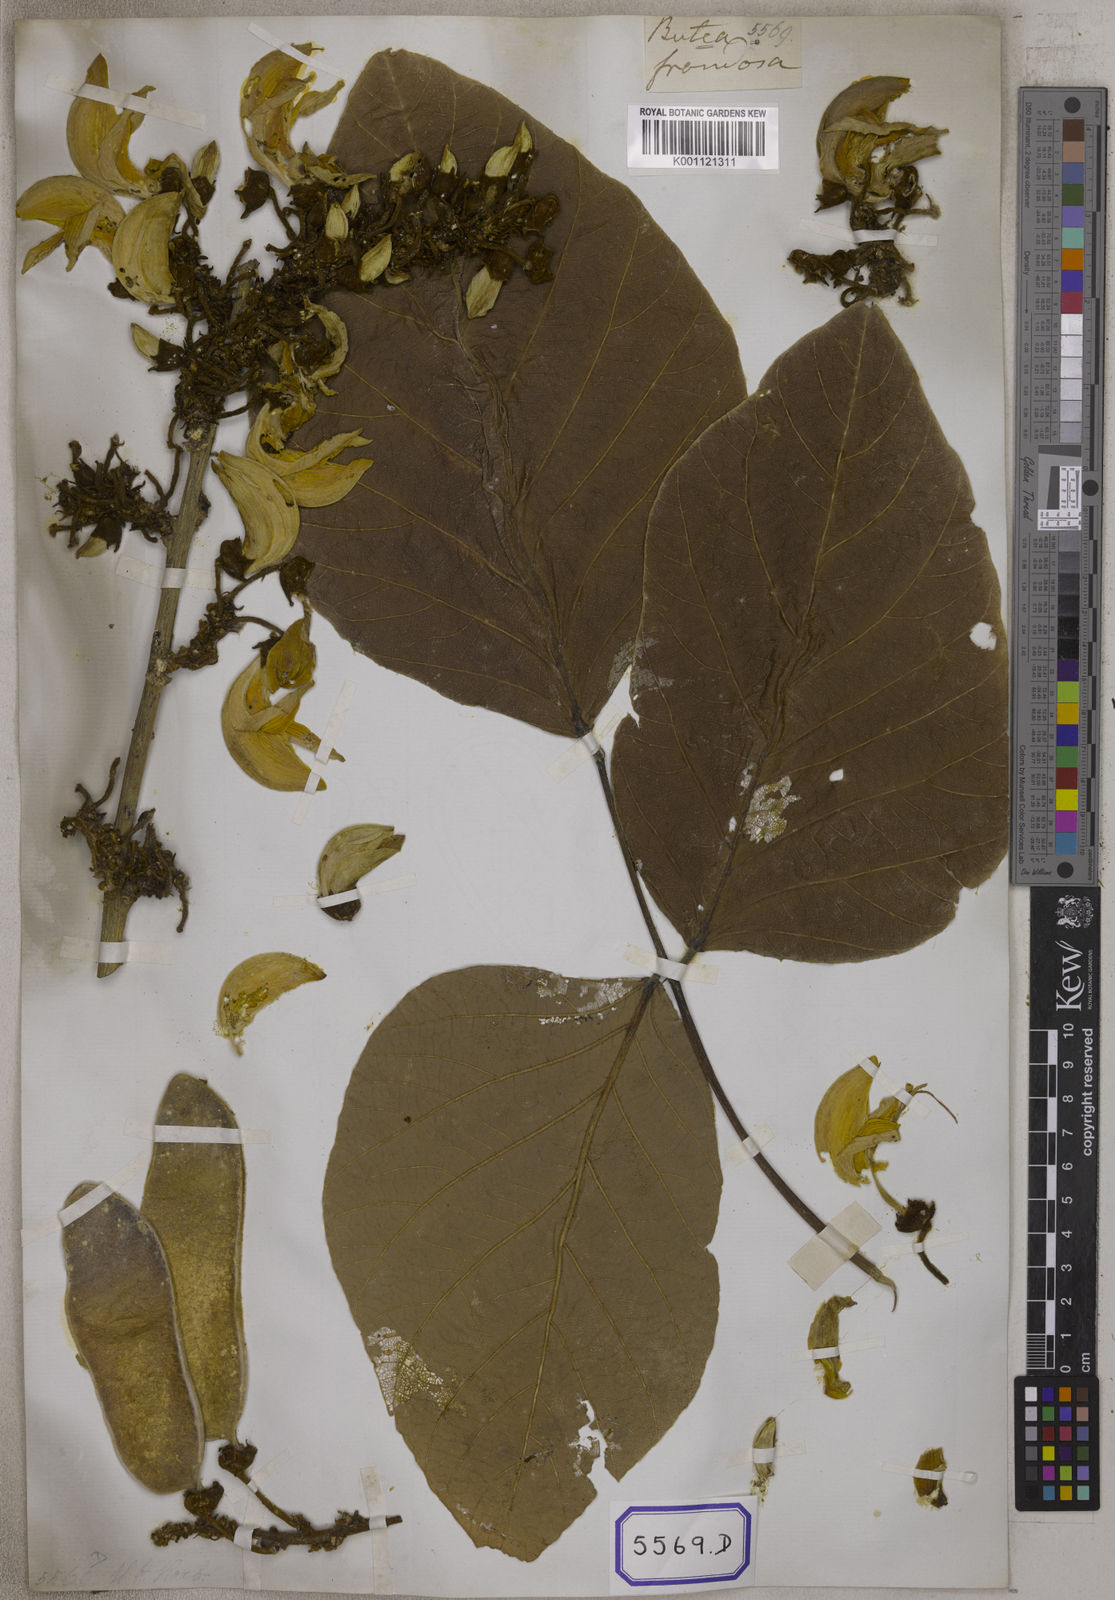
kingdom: Plantae
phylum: Tracheophyta
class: Magnoliopsida
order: Fabales
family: Fabaceae
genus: Butea
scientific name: Butea
